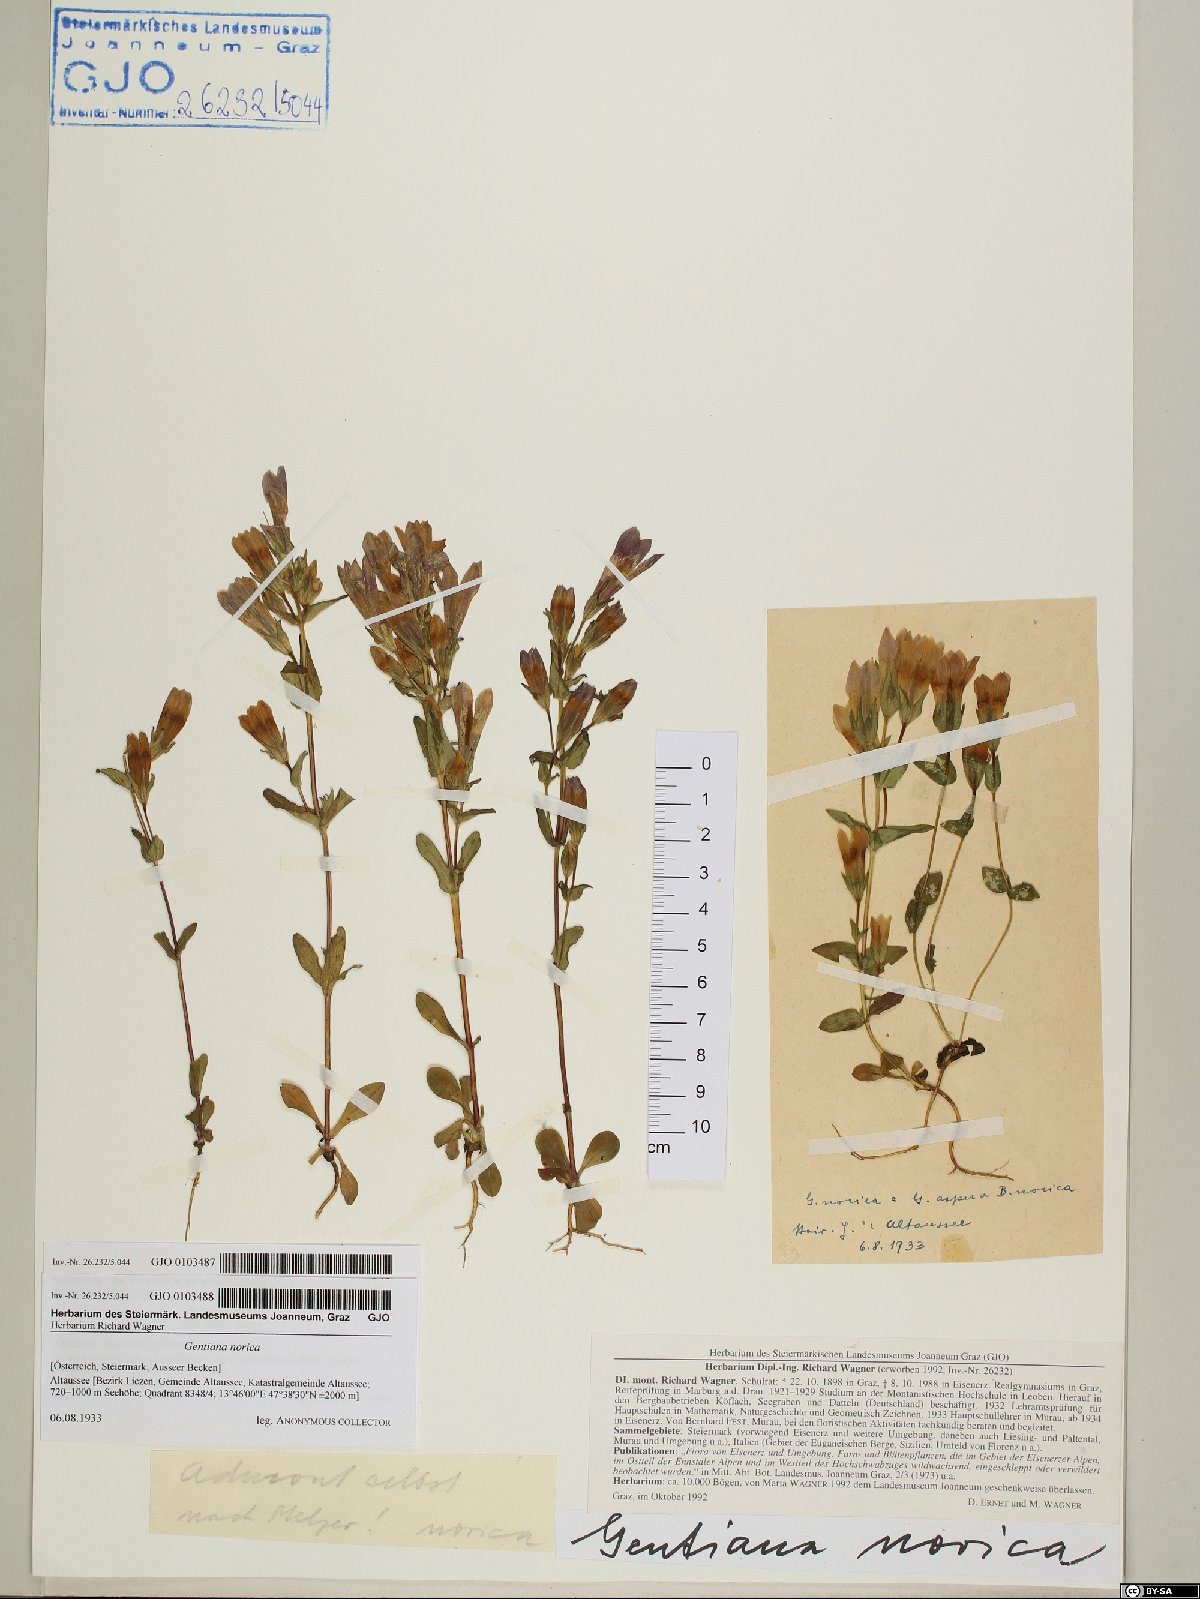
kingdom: Plantae
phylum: Tracheophyta
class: Magnoliopsida
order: Gentianales
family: Gentianaceae
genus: Gentianella
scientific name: Gentianella obtusifolia
